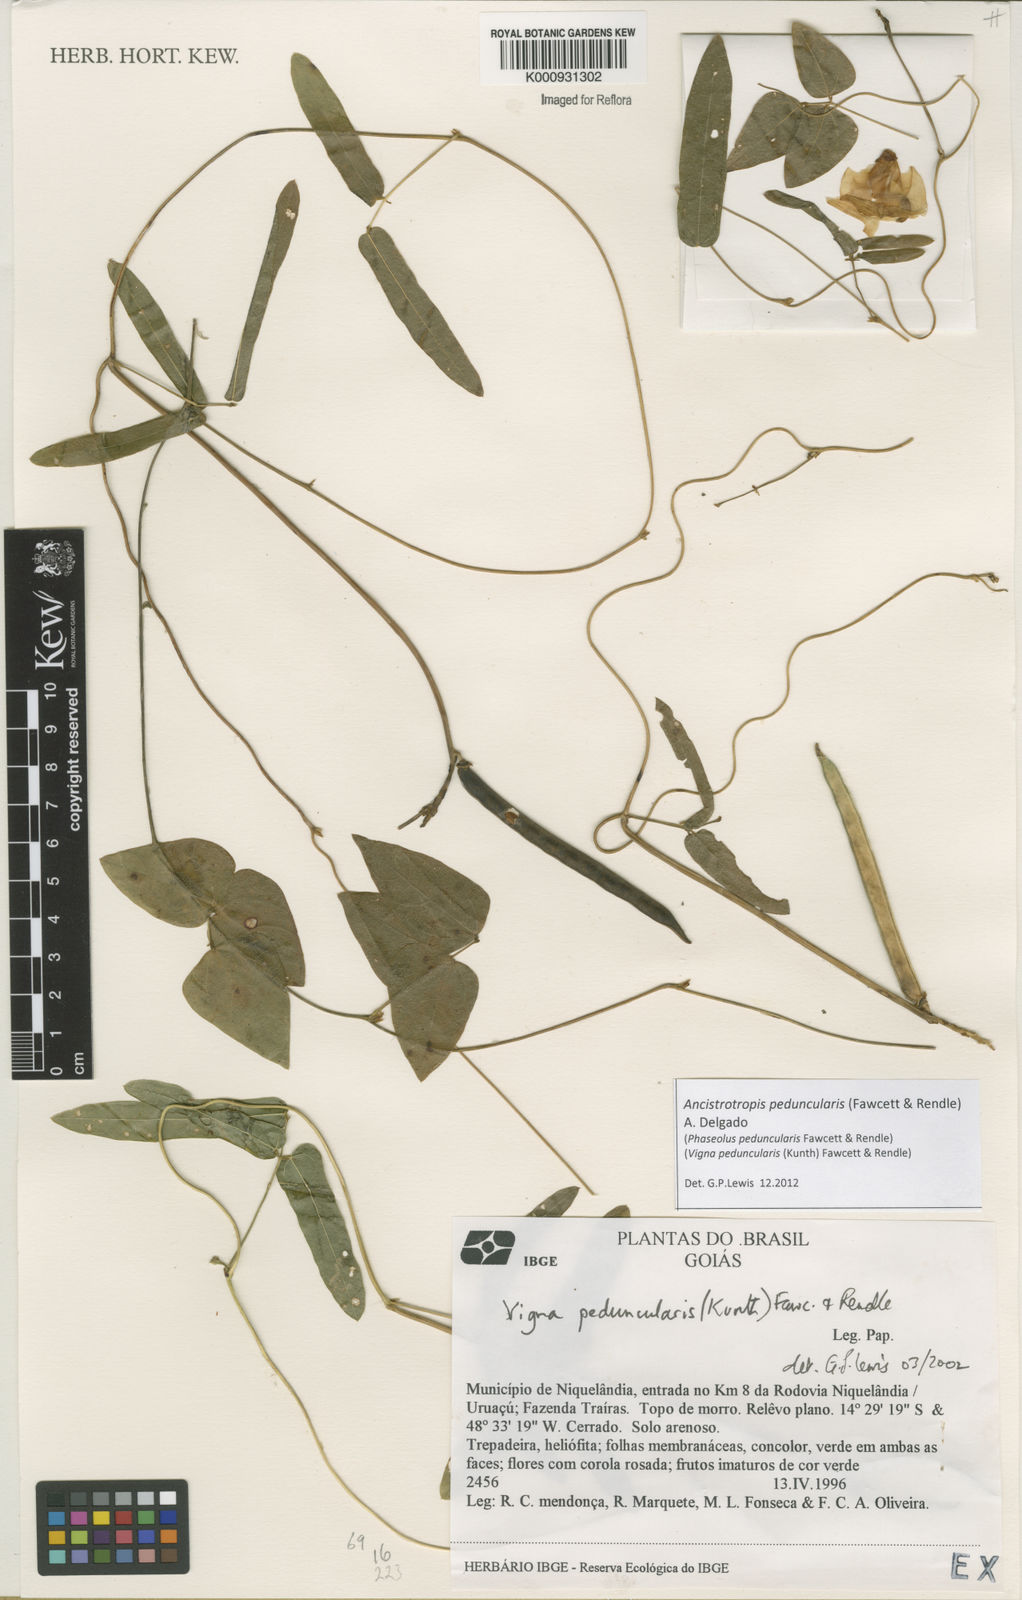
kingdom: Plantae
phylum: Tracheophyta
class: Magnoliopsida
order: Fabales
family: Fabaceae
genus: Ancistrotropis
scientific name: Ancistrotropis peduncularis
